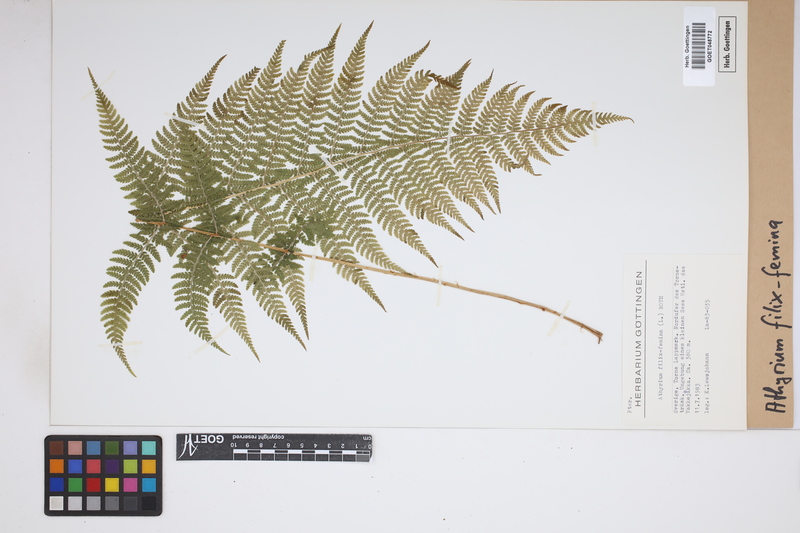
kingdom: Plantae
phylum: Tracheophyta
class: Polypodiopsida
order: Polypodiales
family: Athyriaceae
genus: Athyrium
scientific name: Athyrium filix-femina
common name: Lady fern
